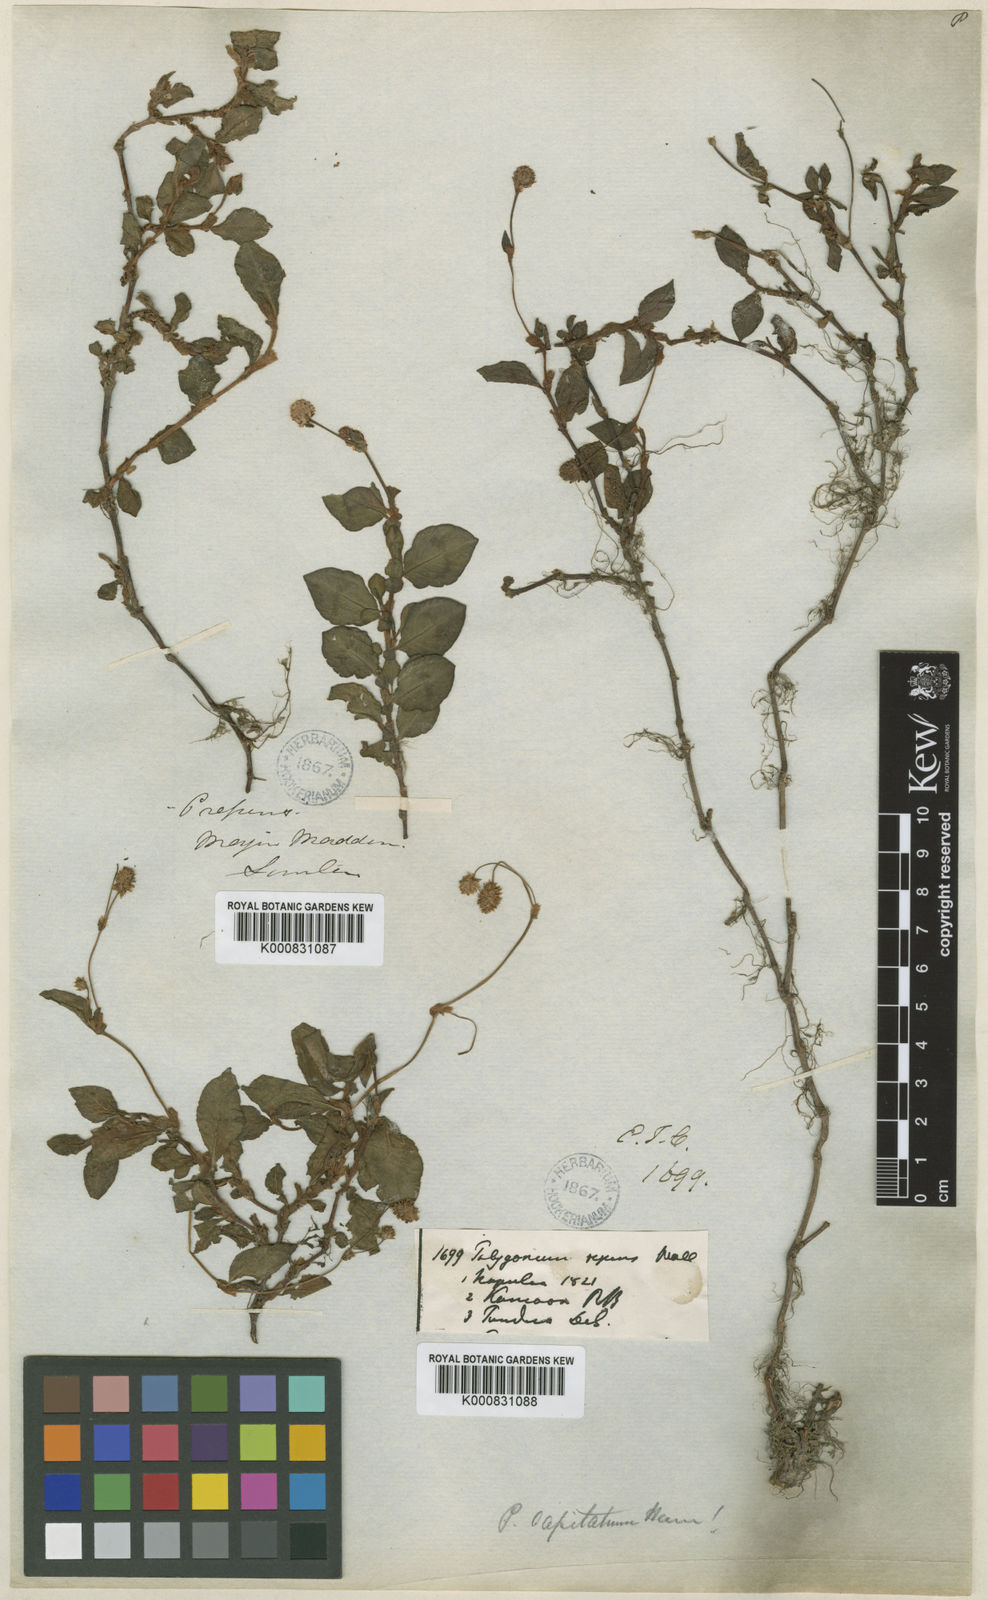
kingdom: Plantae
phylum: Tracheophyta
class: Magnoliopsida
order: Caryophyllales
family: Polygonaceae
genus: Persicaria
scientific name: Persicaria capitata
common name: Pinkhead smartweed
